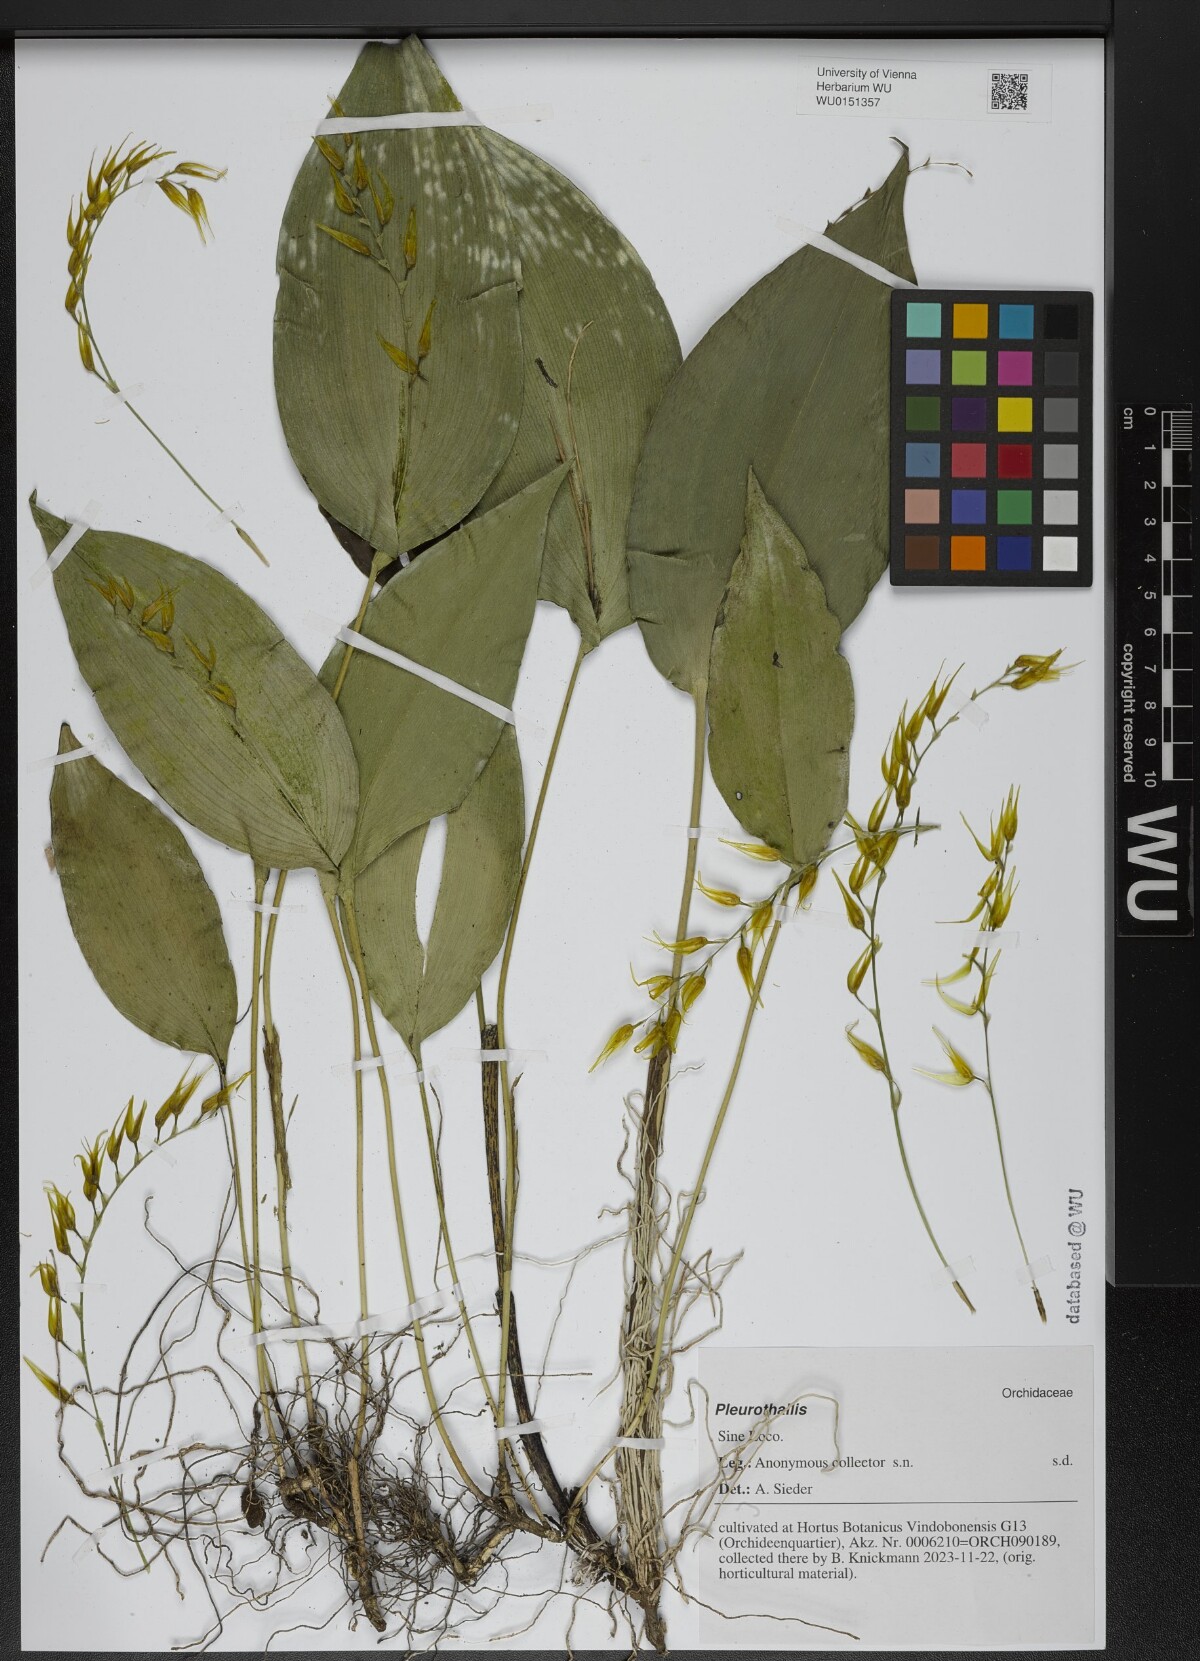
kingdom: Plantae
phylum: Tracheophyta
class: Liliopsida
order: Asparagales
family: Orchidaceae
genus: Pleurothallis
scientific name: Pleurothallis
